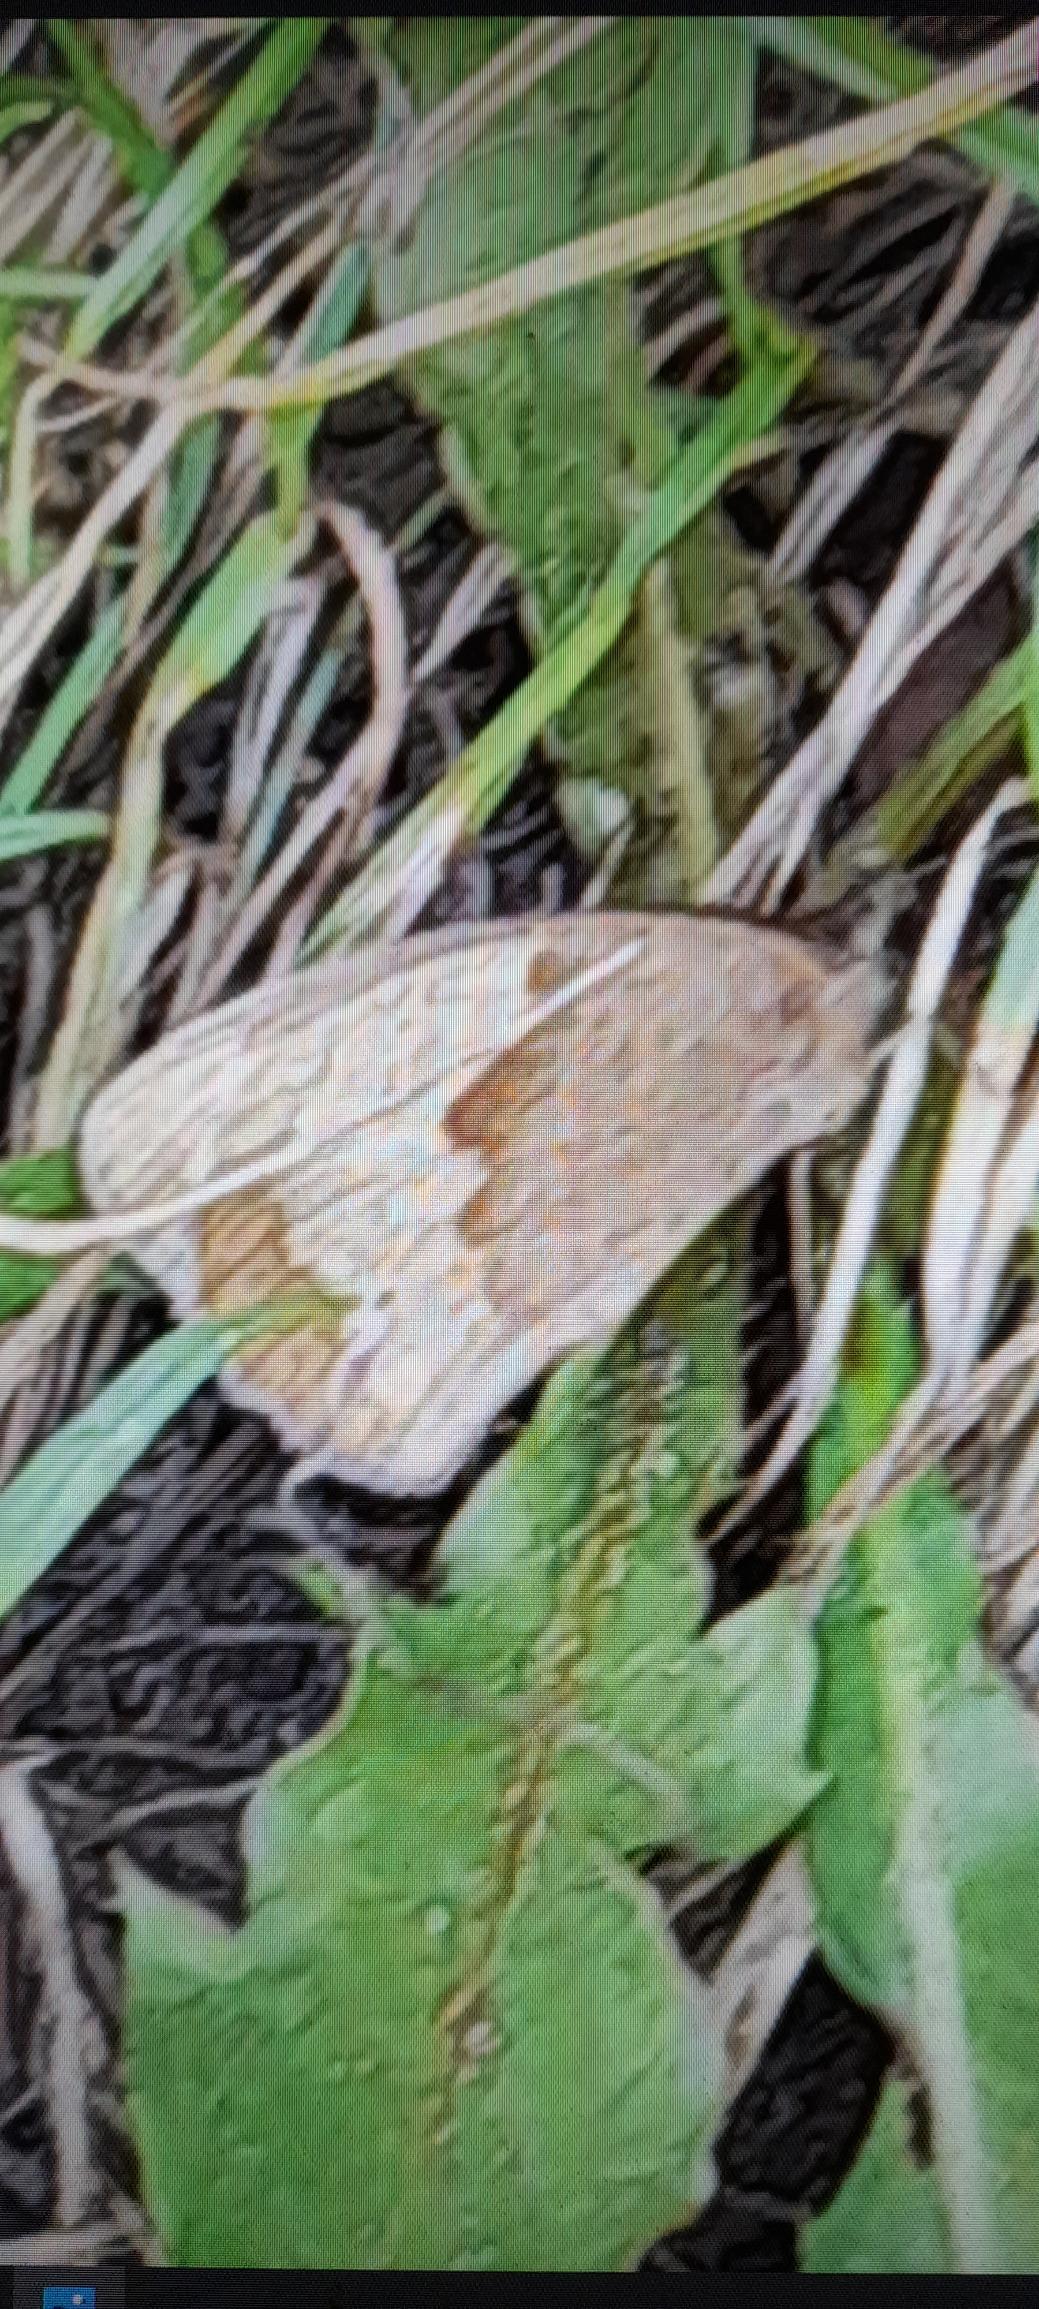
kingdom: Animalia
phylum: Arthropoda
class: Insecta
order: Lepidoptera
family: Nymphalidae
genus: Maniola
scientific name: Maniola jurtina
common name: Græsrandøje
